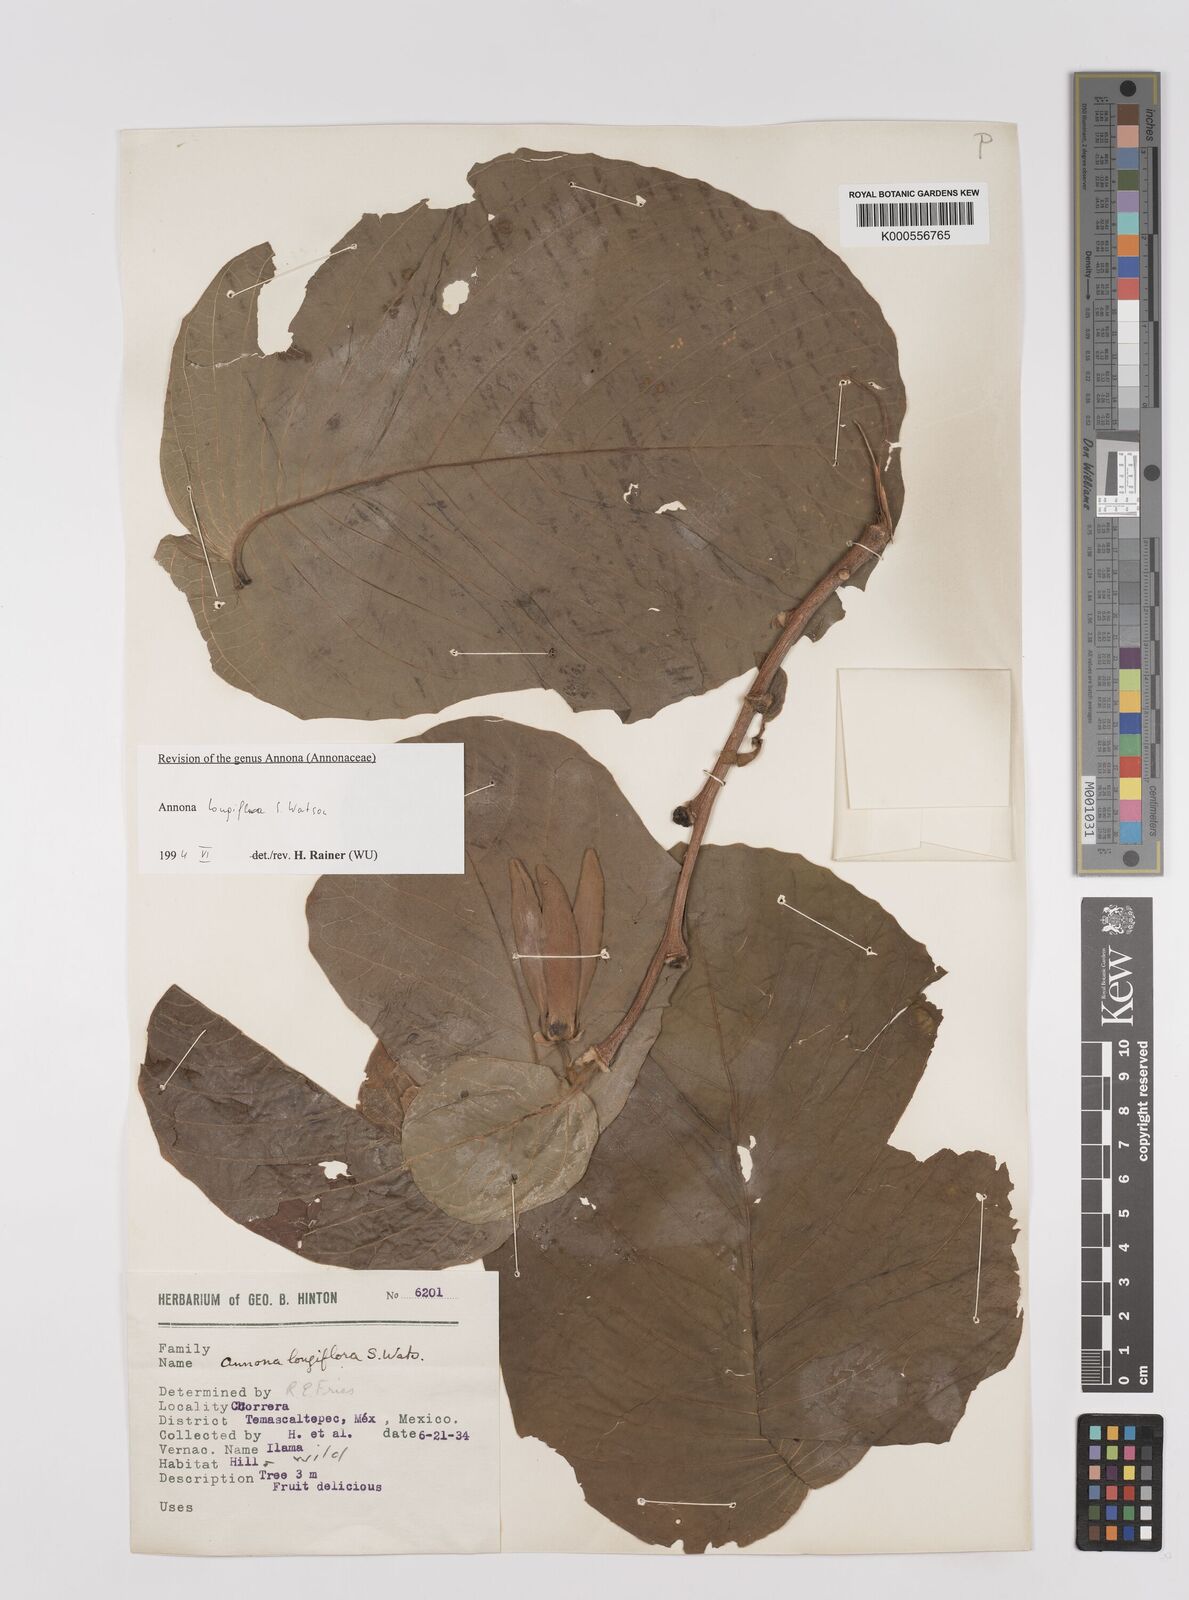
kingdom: Plantae
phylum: Tracheophyta
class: Magnoliopsida
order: Magnoliales
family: Annonaceae
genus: Annona
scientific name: Annona longiflora
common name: Wild cherimoya of jalisco
